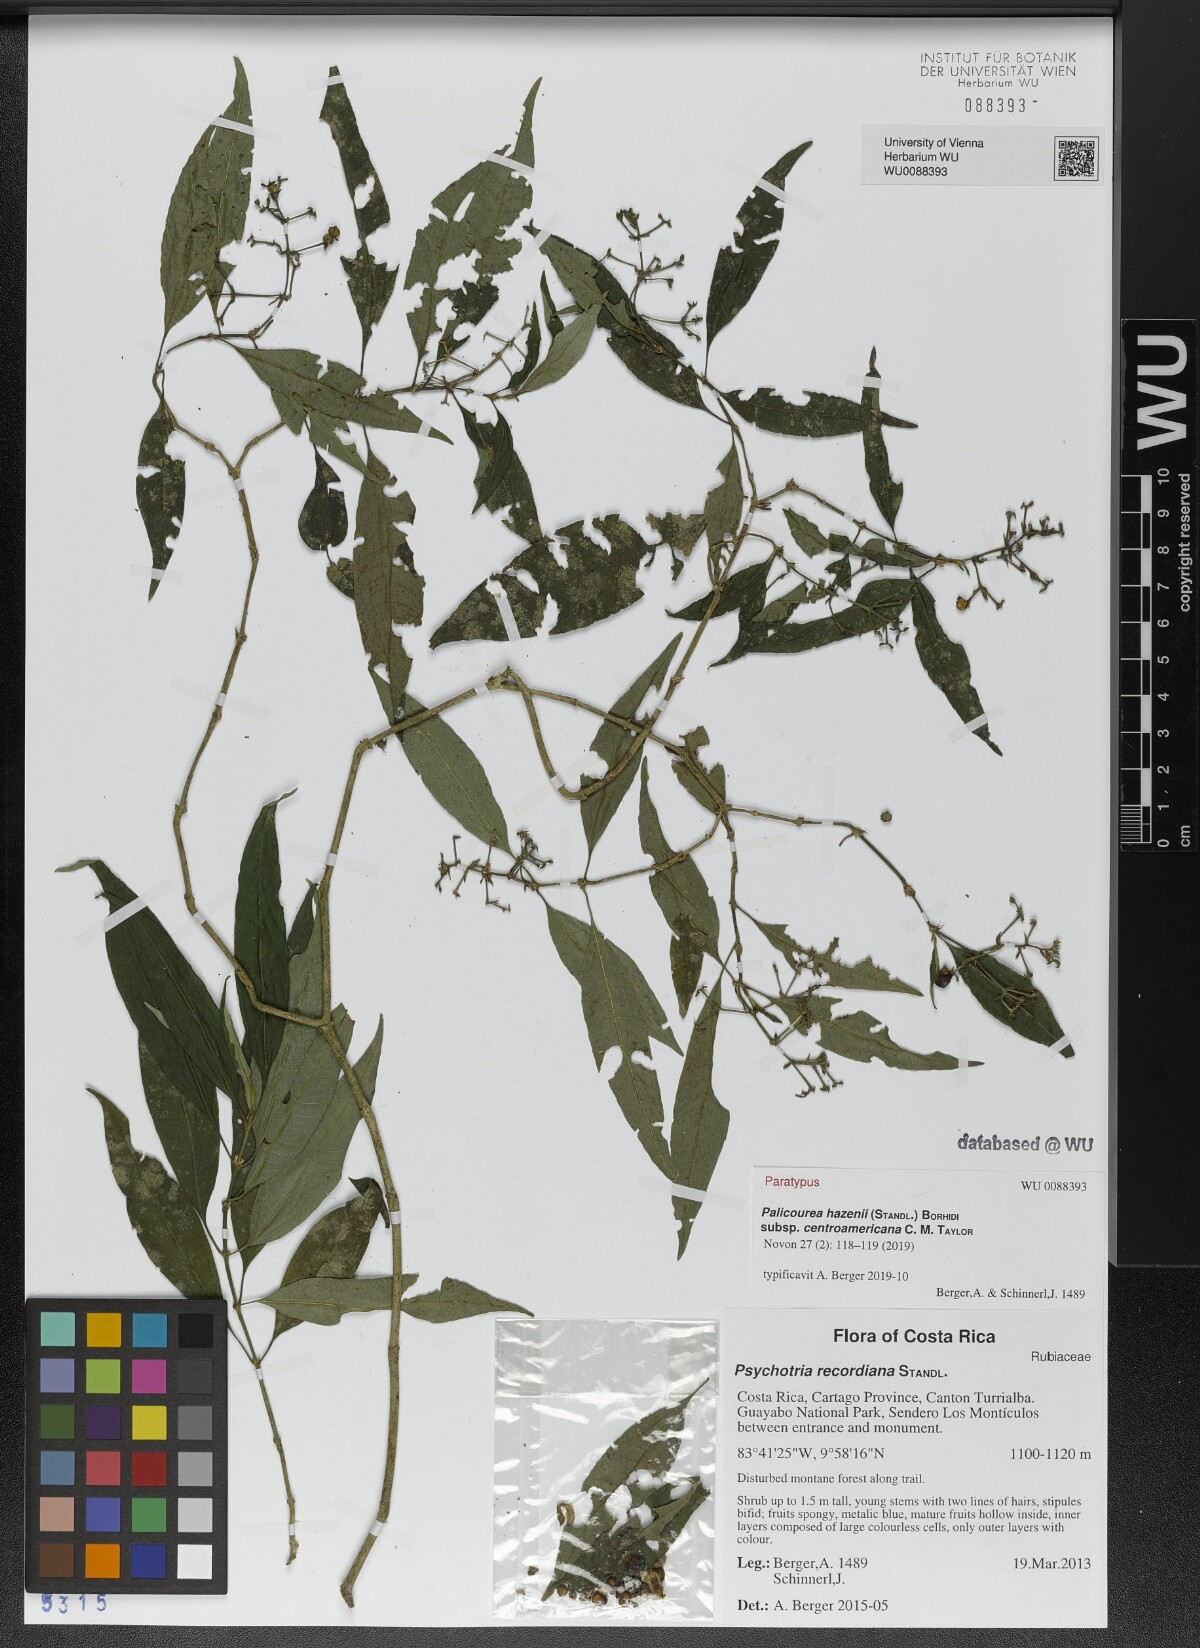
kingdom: Plantae
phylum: Tracheophyta
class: Magnoliopsida
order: Gentianales
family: Rubiaceae
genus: Palicourea
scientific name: Palicourea hazenii
